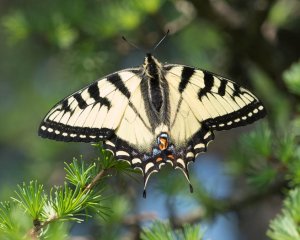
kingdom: Animalia
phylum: Arthropoda
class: Insecta
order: Lepidoptera
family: Papilionidae
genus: Pterourus
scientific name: Pterourus canadensis
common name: Canadian Tiger Swallowtail
